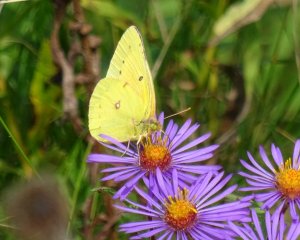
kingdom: Animalia
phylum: Arthropoda
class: Insecta
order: Lepidoptera
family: Pieridae
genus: Colias
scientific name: Colias philodice
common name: Clouded Sulphur
